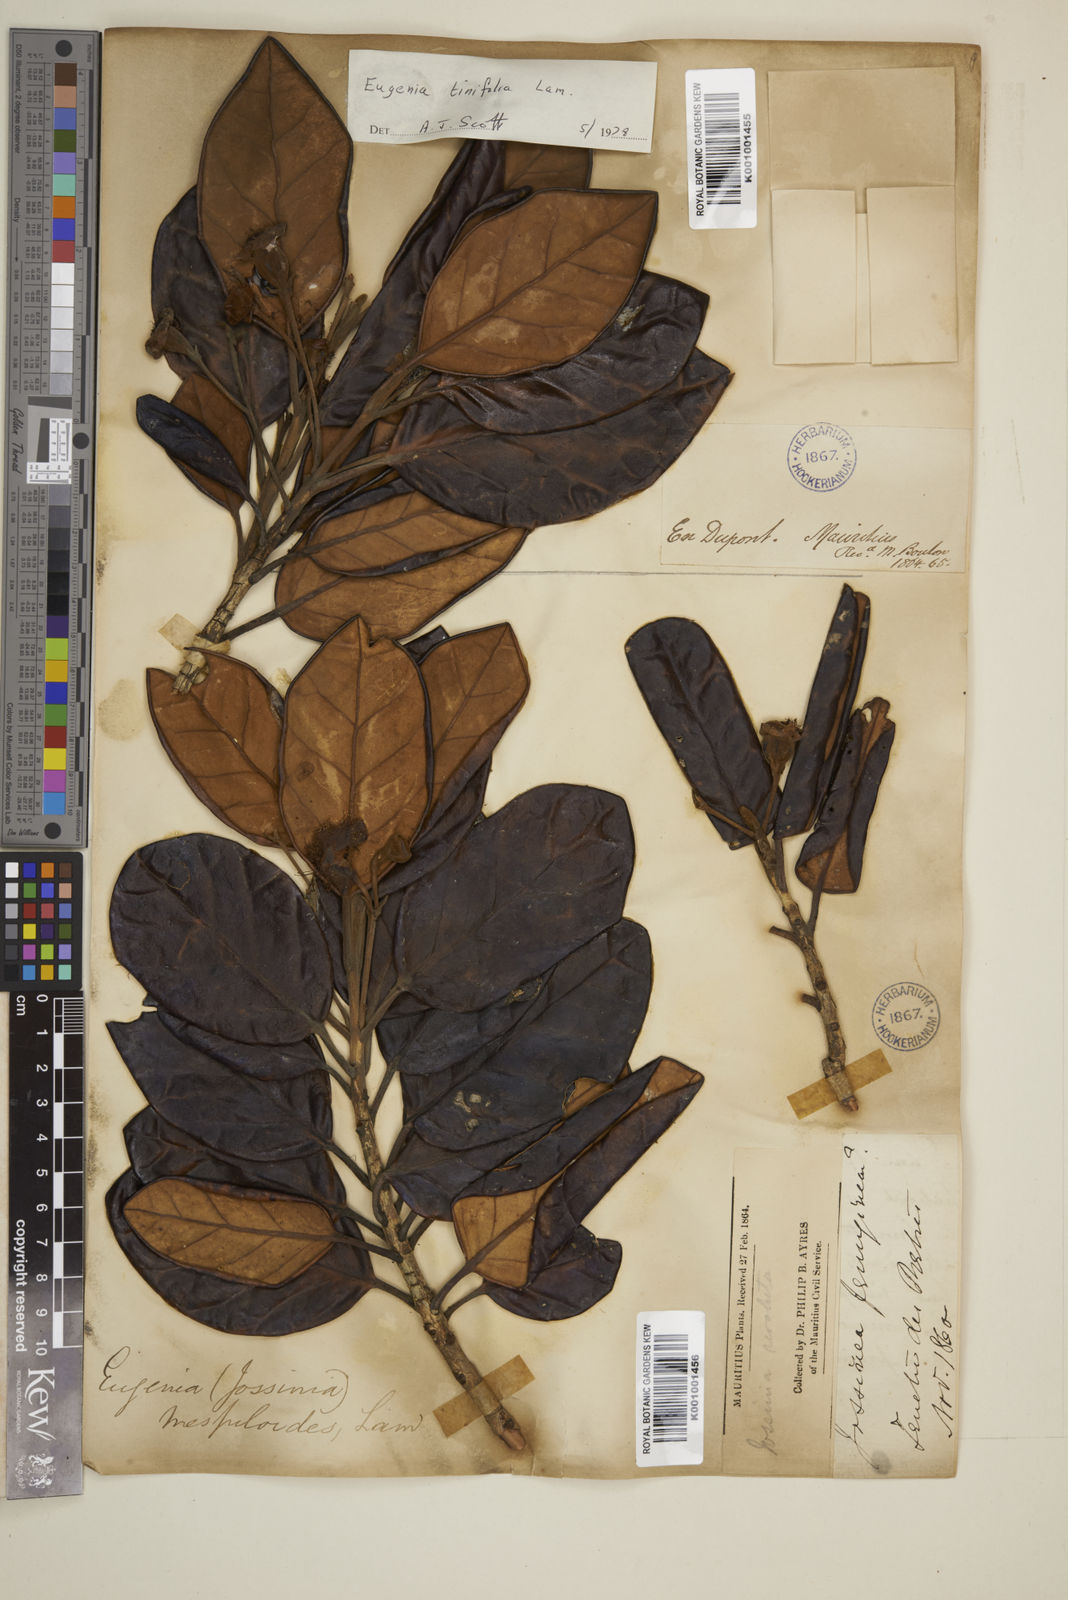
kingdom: Plantae
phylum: Tracheophyta
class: Magnoliopsida
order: Myrtales
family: Myrtaceae
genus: Eugenia
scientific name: Eugenia tinifolia
